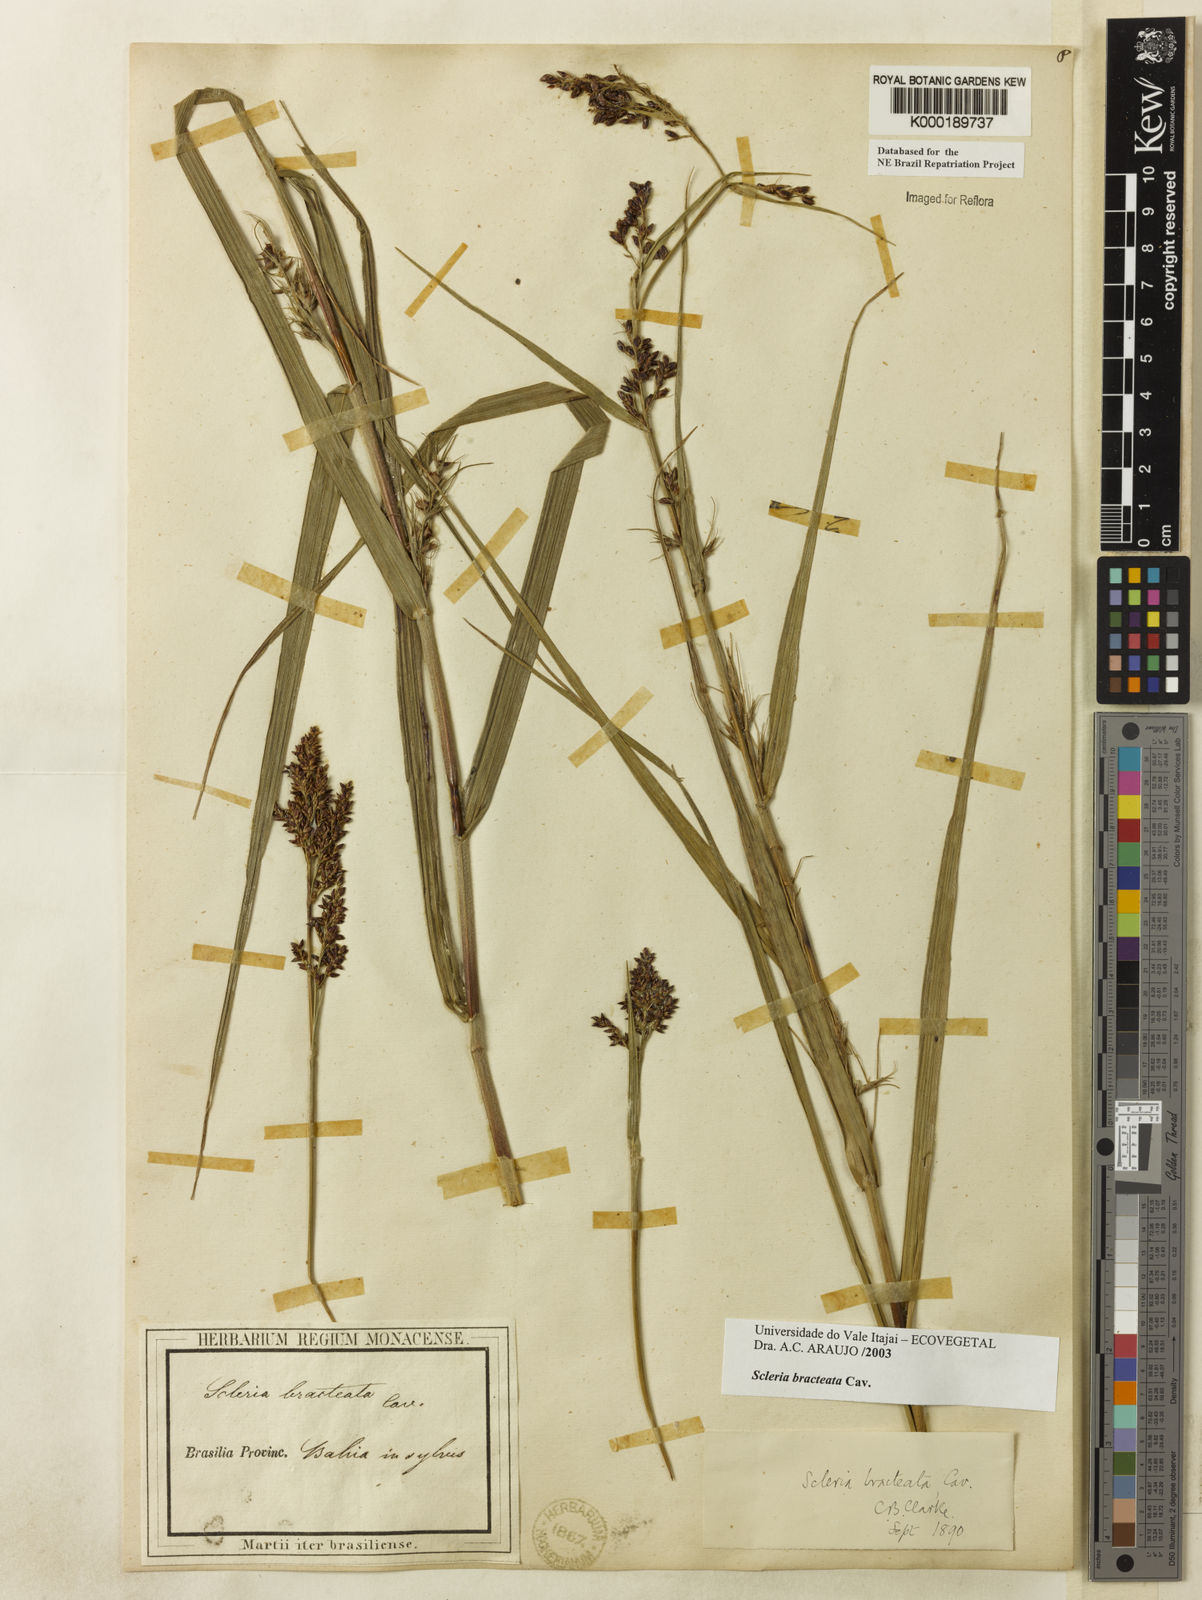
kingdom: Plantae
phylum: Tracheophyta
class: Liliopsida
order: Poales
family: Cyperaceae
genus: Scleria
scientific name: Scleria bracteata
